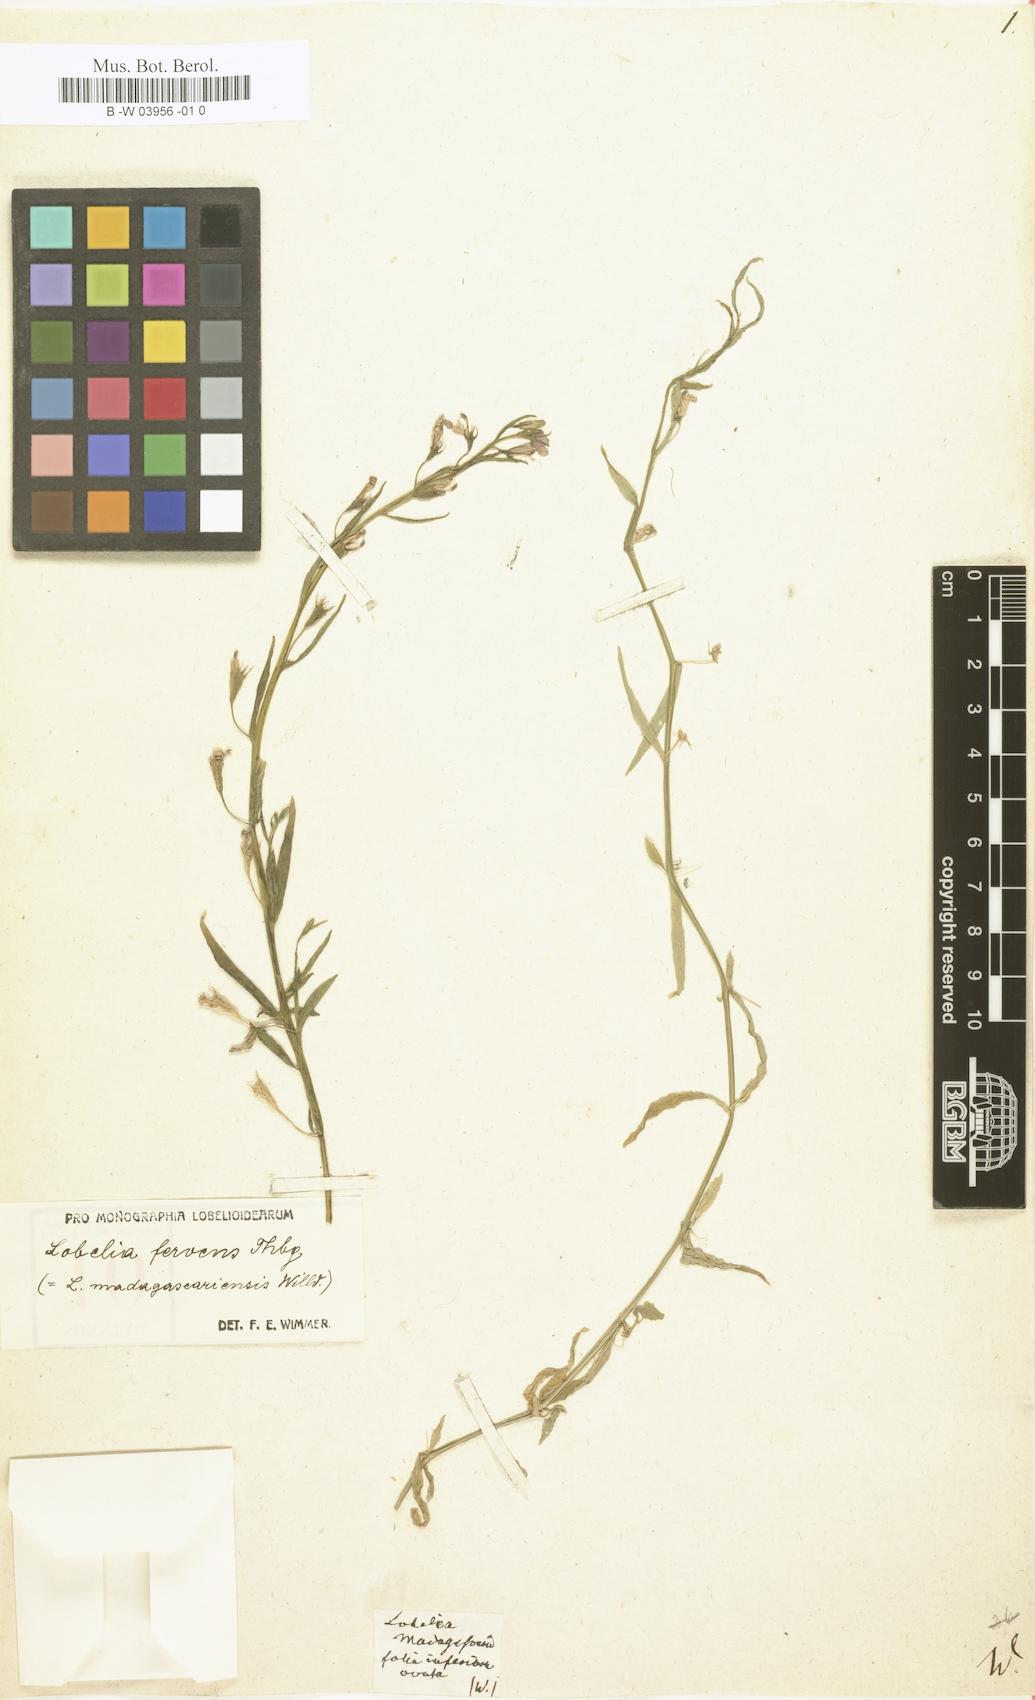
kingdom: Plantae
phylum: Tracheophyta
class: Magnoliopsida
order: Asterales
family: Campanulaceae
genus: Lobelia
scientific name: Lobelia decurrens
